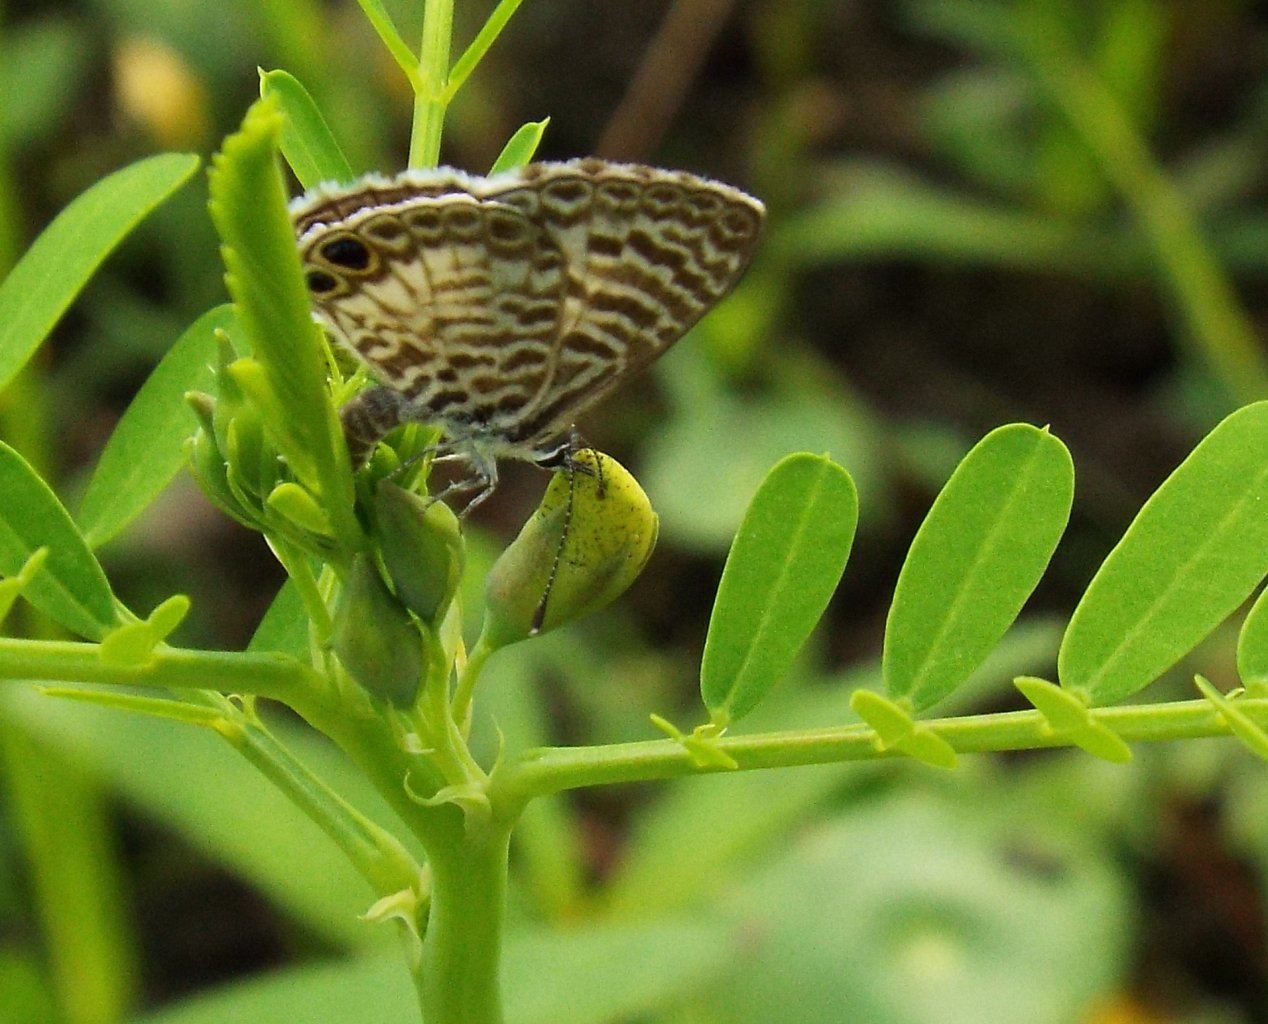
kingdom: Animalia
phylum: Arthropoda
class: Insecta
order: Lepidoptera
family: Lycaenidae
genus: Leptotes
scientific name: Leptotes cassius
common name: Cassius Blue
